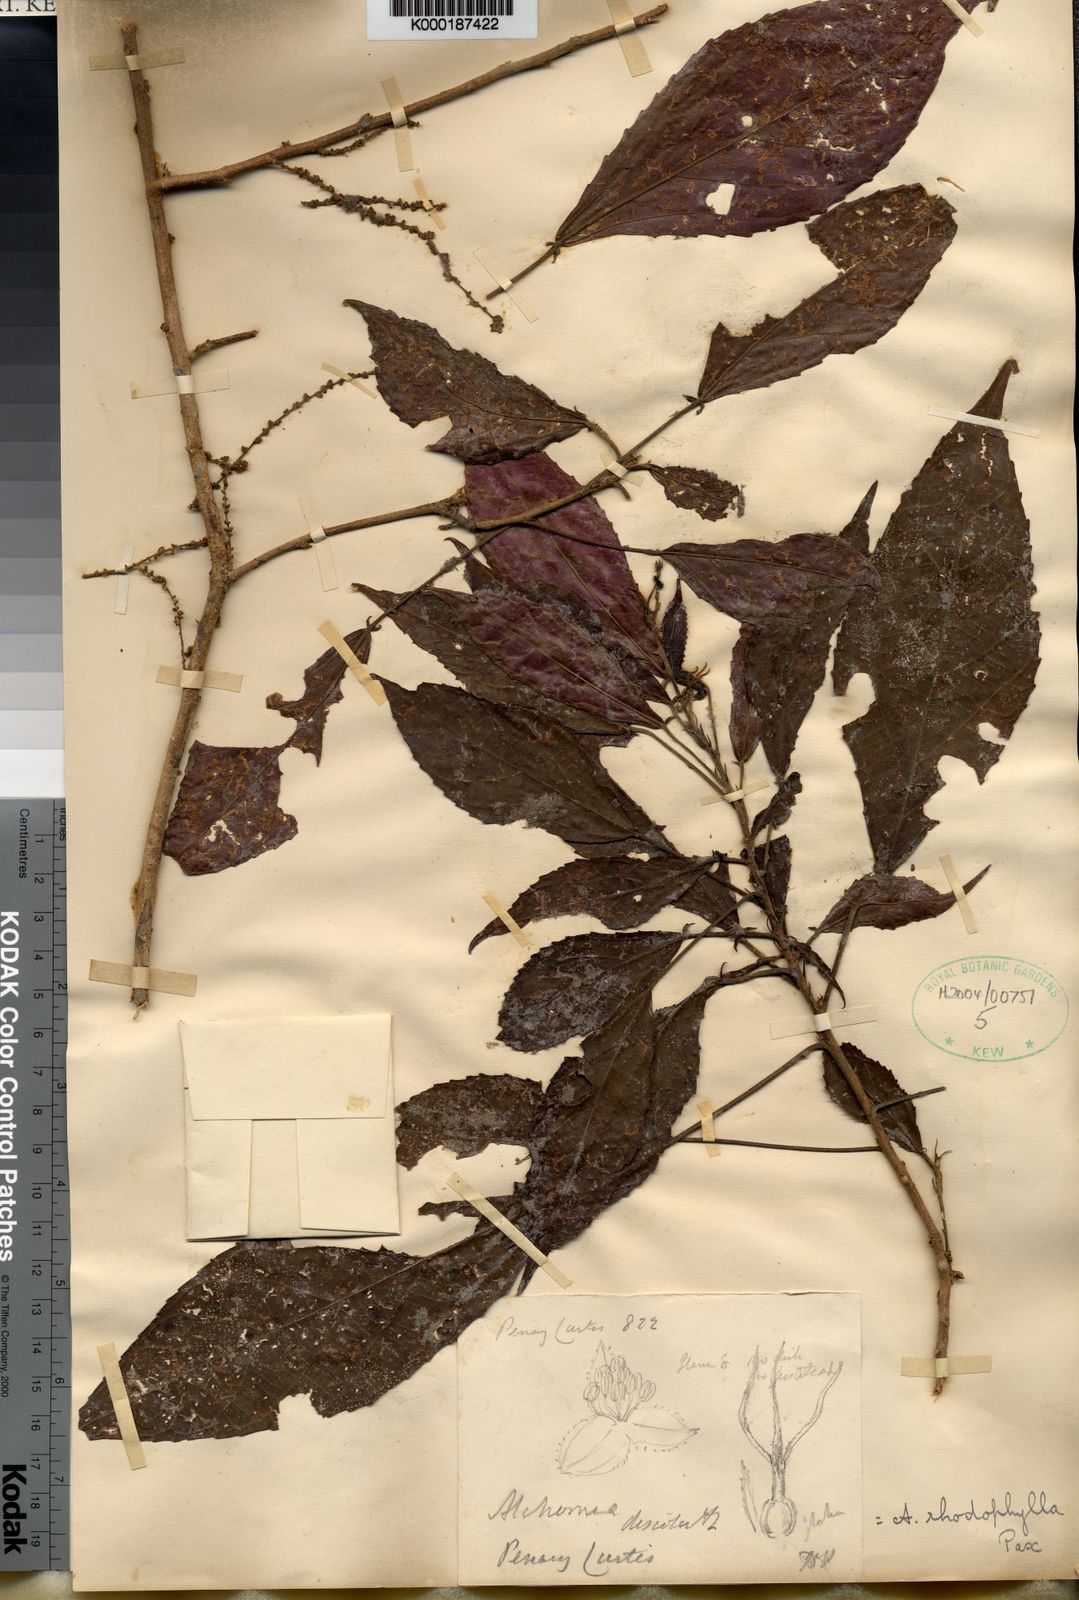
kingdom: Plantae
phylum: Tracheophyta
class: Magnoliopsida
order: Malpighiales
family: Euphorbiaceae
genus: Alchornea
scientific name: Alchornea rhodophylla
